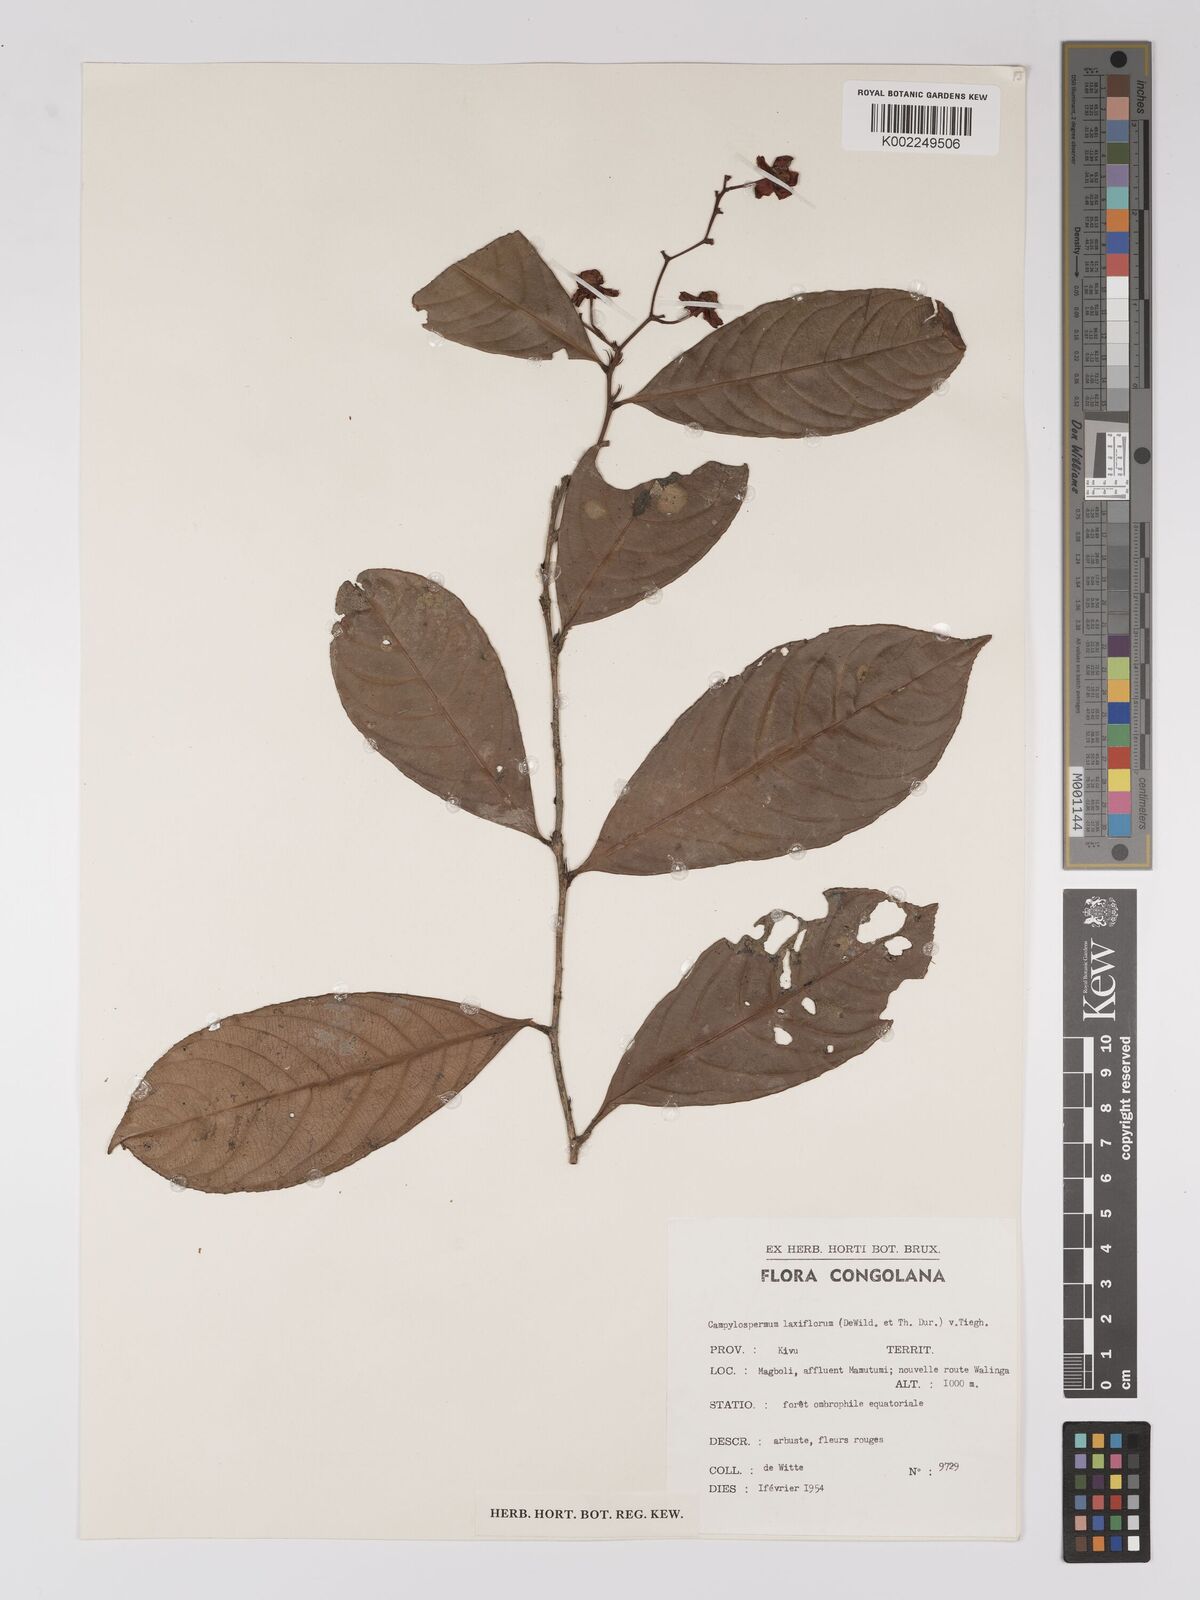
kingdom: Plantae
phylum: Tracheophyta
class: Magnoliopsida
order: Malpighiales
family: Ochnaceae
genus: Campylospermum
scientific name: Campylospermum laxiflorum
